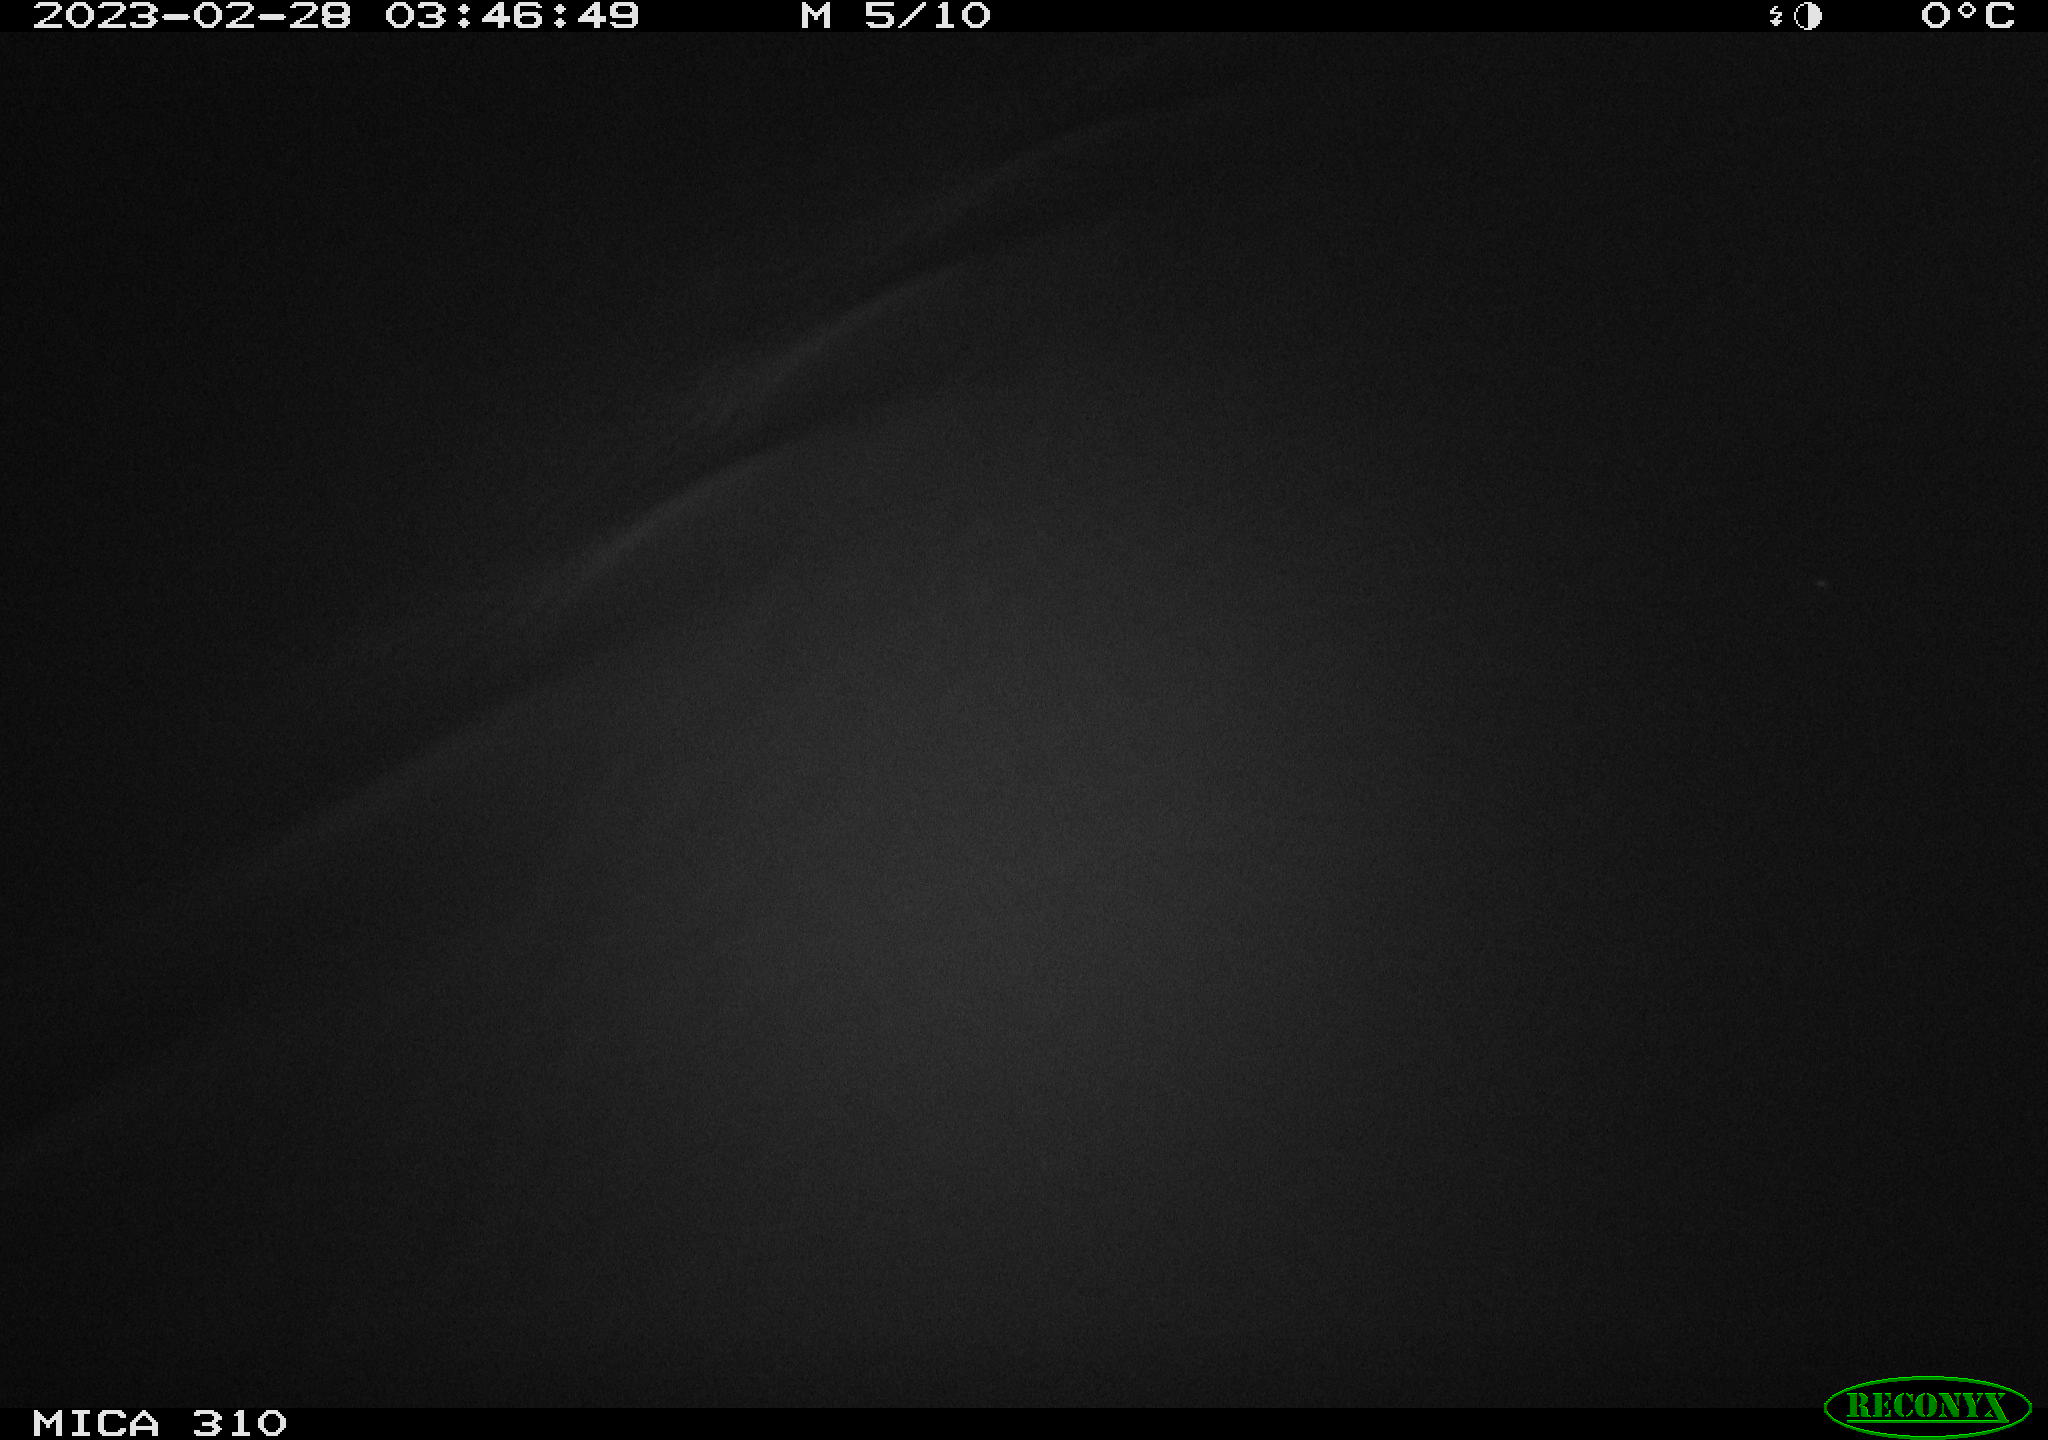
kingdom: Animalia
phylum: Chordata
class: Aves
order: Anseriformes
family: Anatidae
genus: Anas
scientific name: Anas
